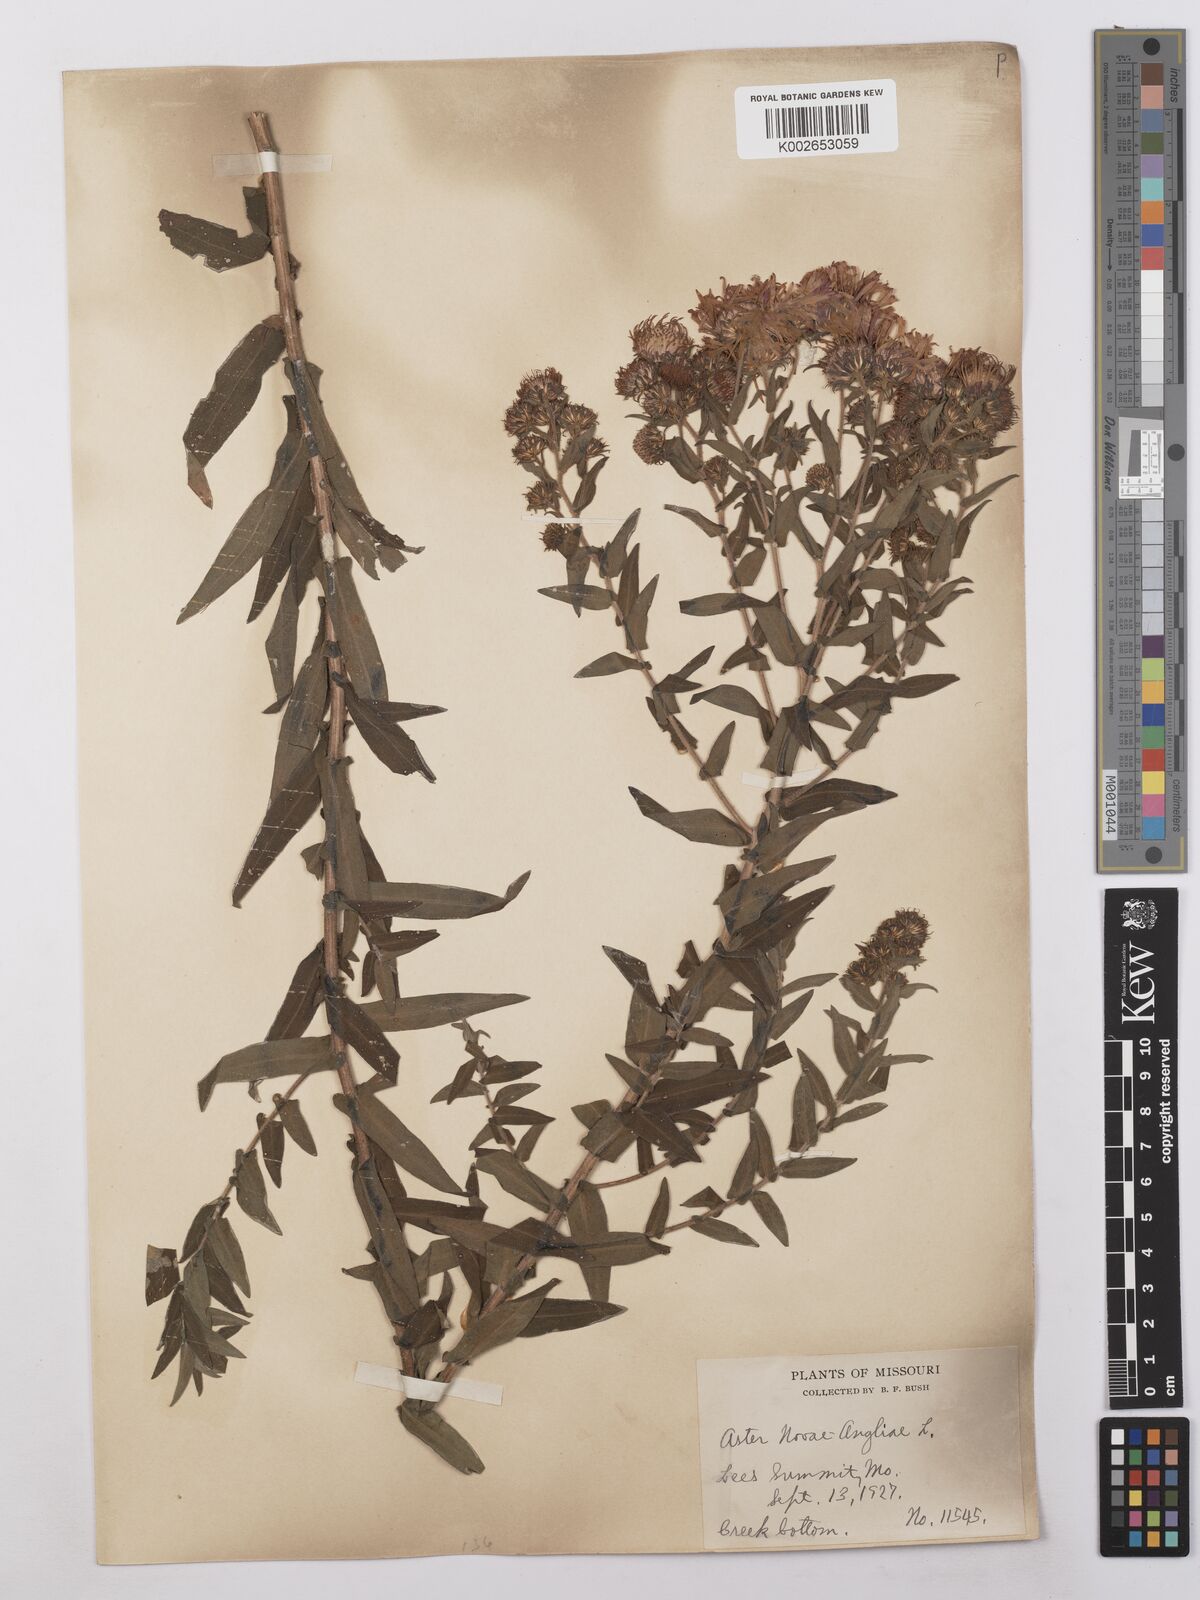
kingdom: Plantae
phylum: Tracheophyta
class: Magnoliopsida
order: Asterales
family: Asteraceae
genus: Symphyotrichum
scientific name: Symphyotrichum novae-angliae
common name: Michaelmas daisy
